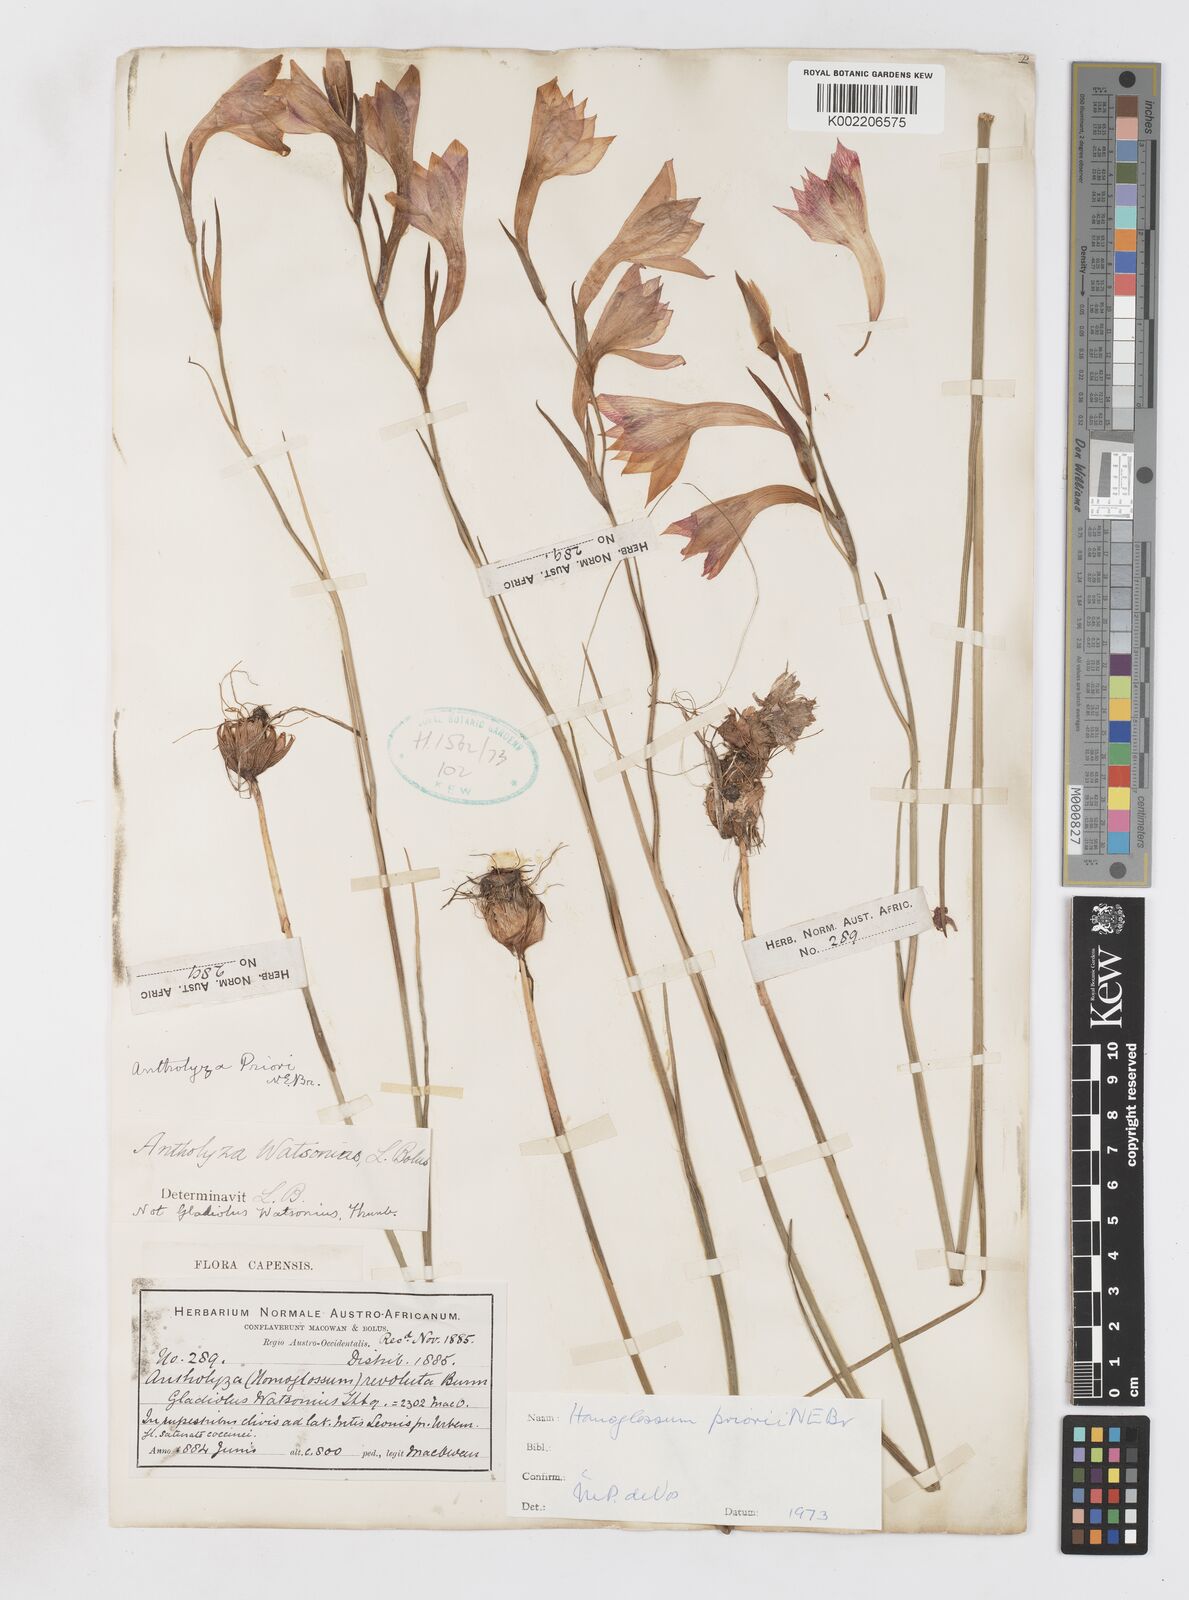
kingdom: Plantae
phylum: Tracheophyta
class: Liliopsida
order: Asparagales
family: Iridaceae
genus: Gladiolus
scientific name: Gladiolus priorii
